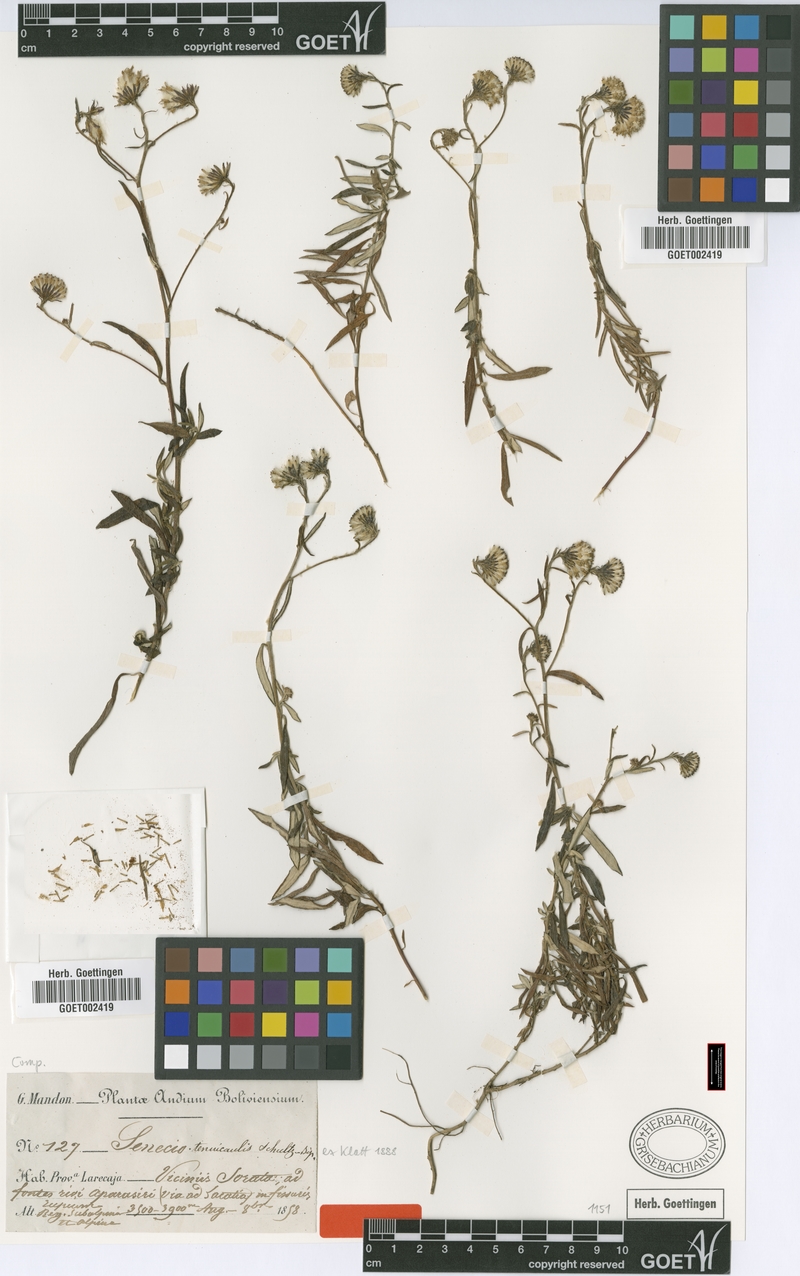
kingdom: Plantae
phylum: Tracheophyta
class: Magnoliopsida
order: Asterales
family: Asteraceae
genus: Senecio
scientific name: Senecio tenuicaulis
